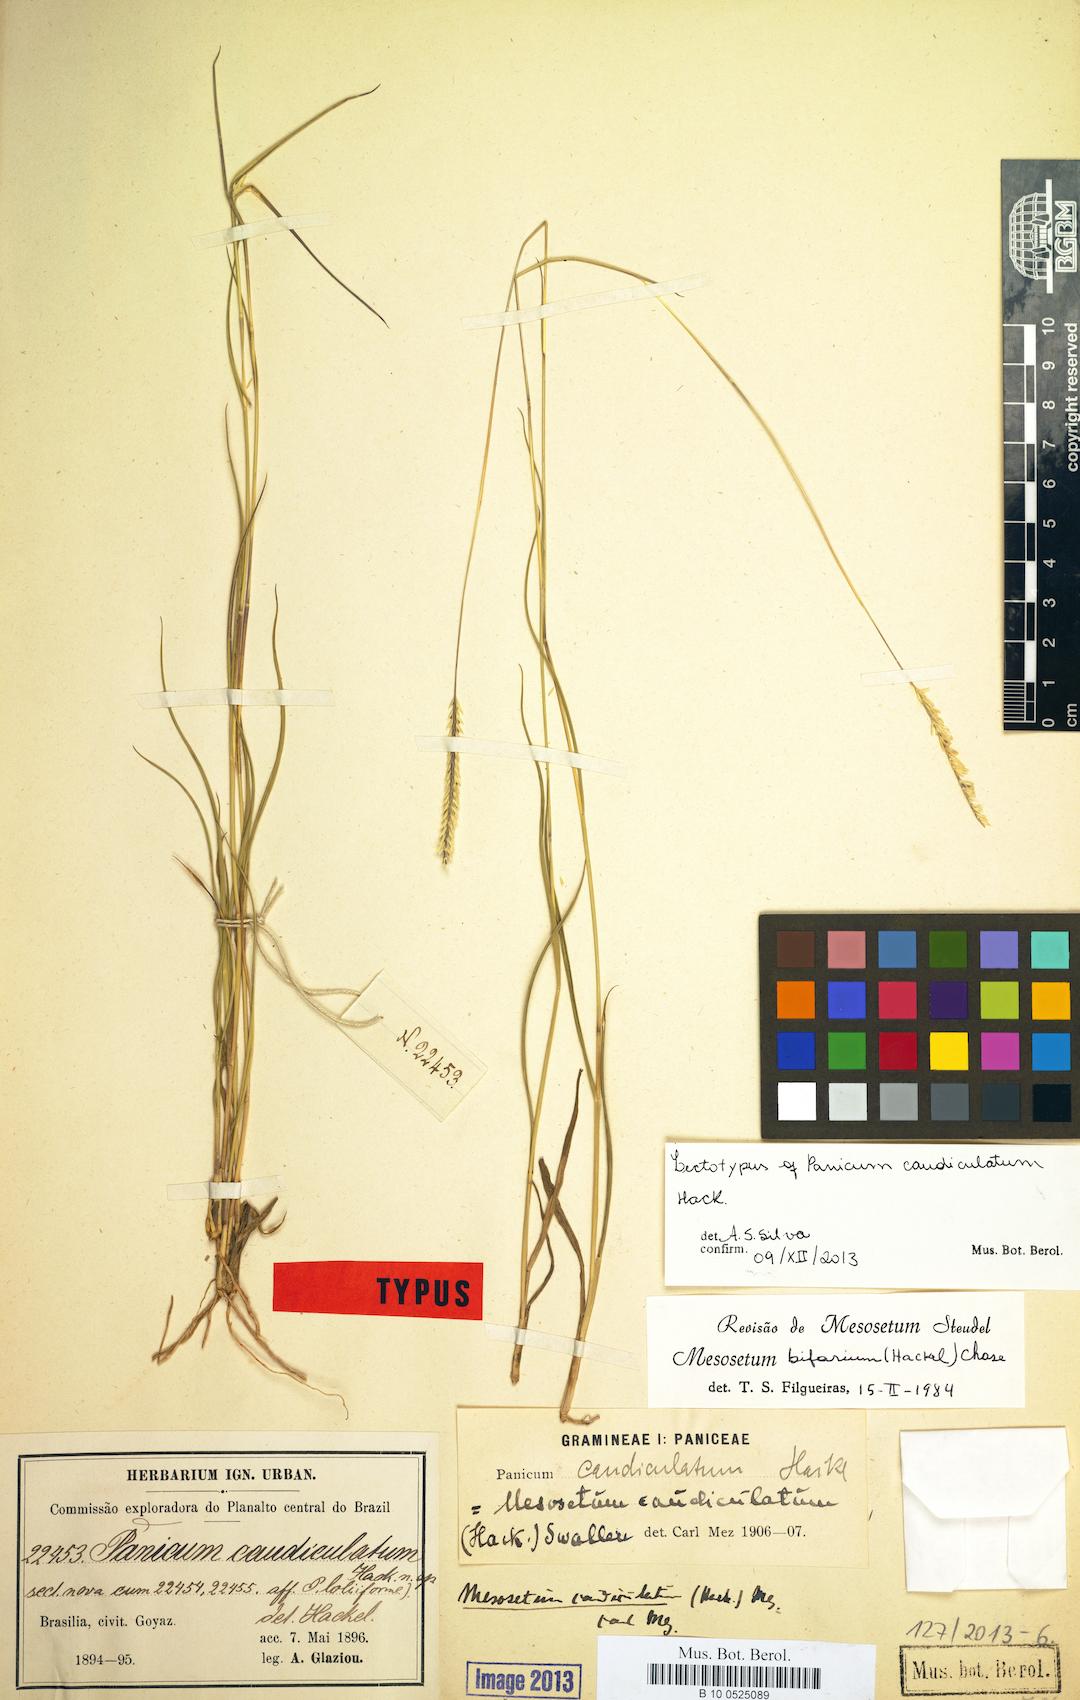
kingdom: Plantae
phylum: Tracheophyta
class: Liliopsida
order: Poales
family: Poaceae
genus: Mesosetum
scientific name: Mesosetum bifarium
